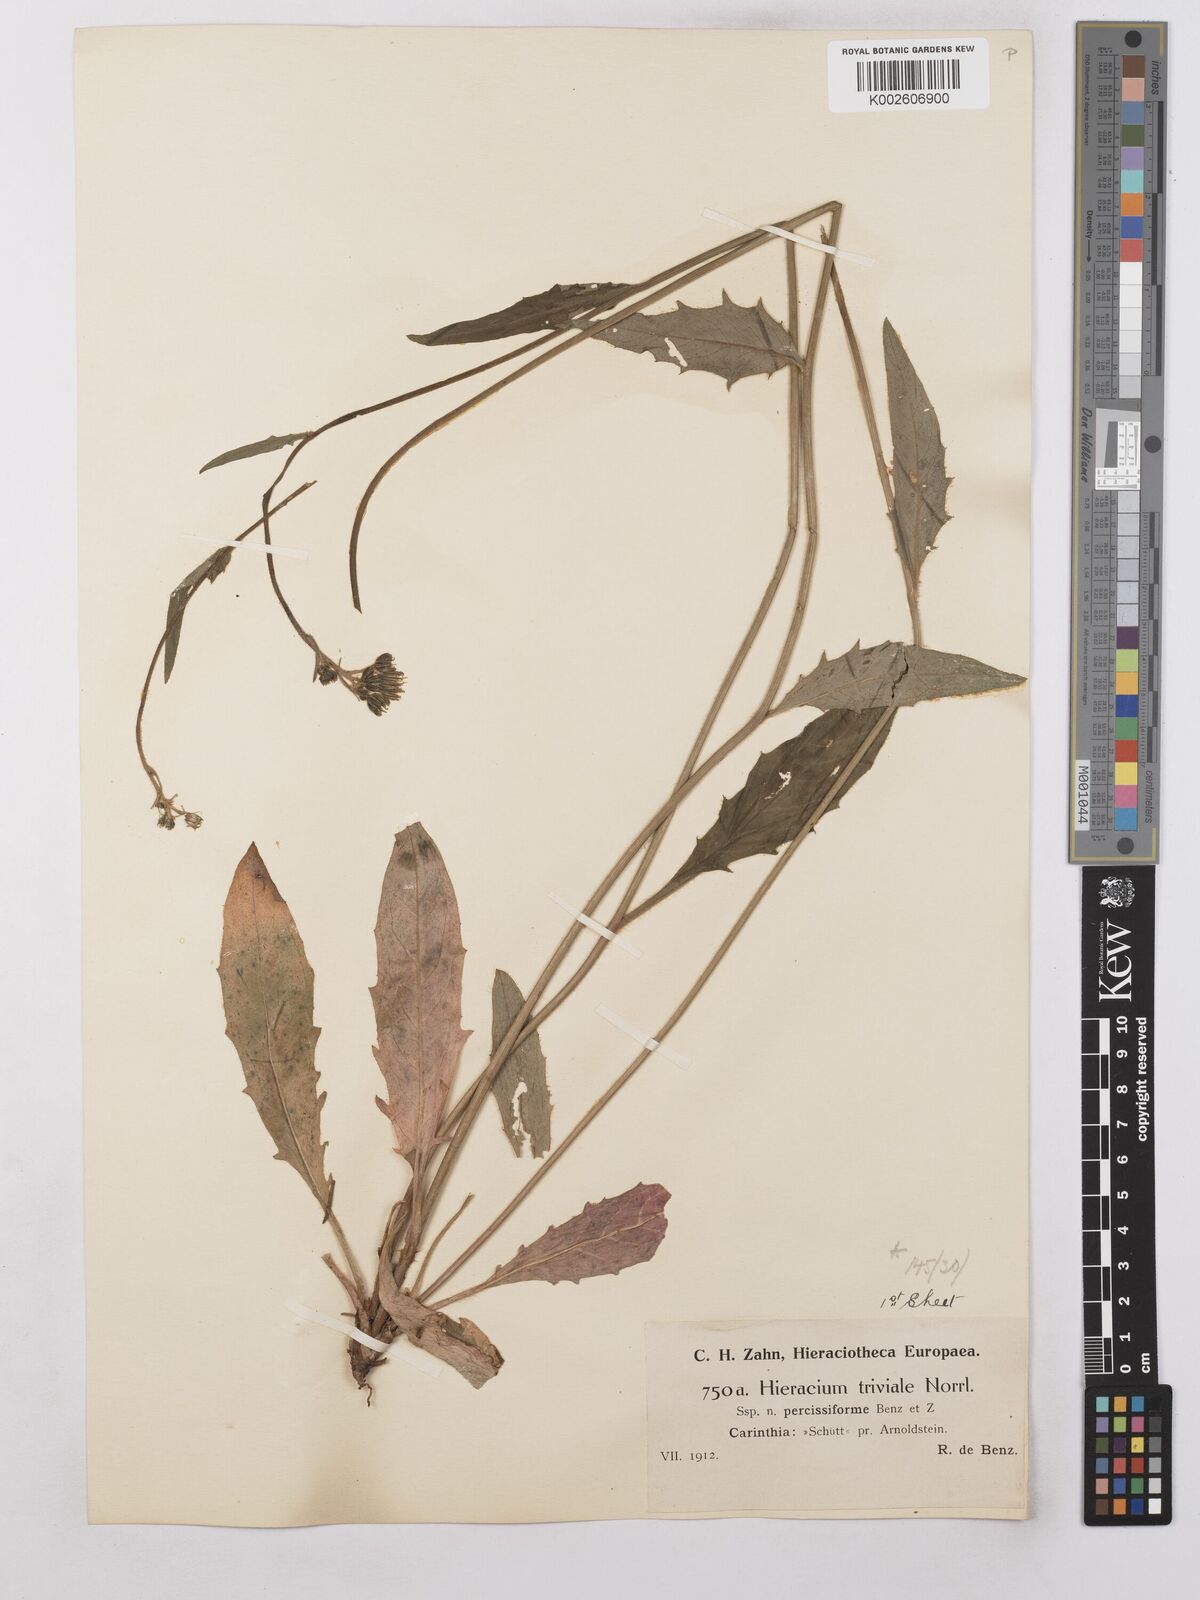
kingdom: Plantae
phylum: Tracheophyta
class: Magnoliopsida
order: Asterales
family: Asteraceae
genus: Hieracium
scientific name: Hieracium levicaule
